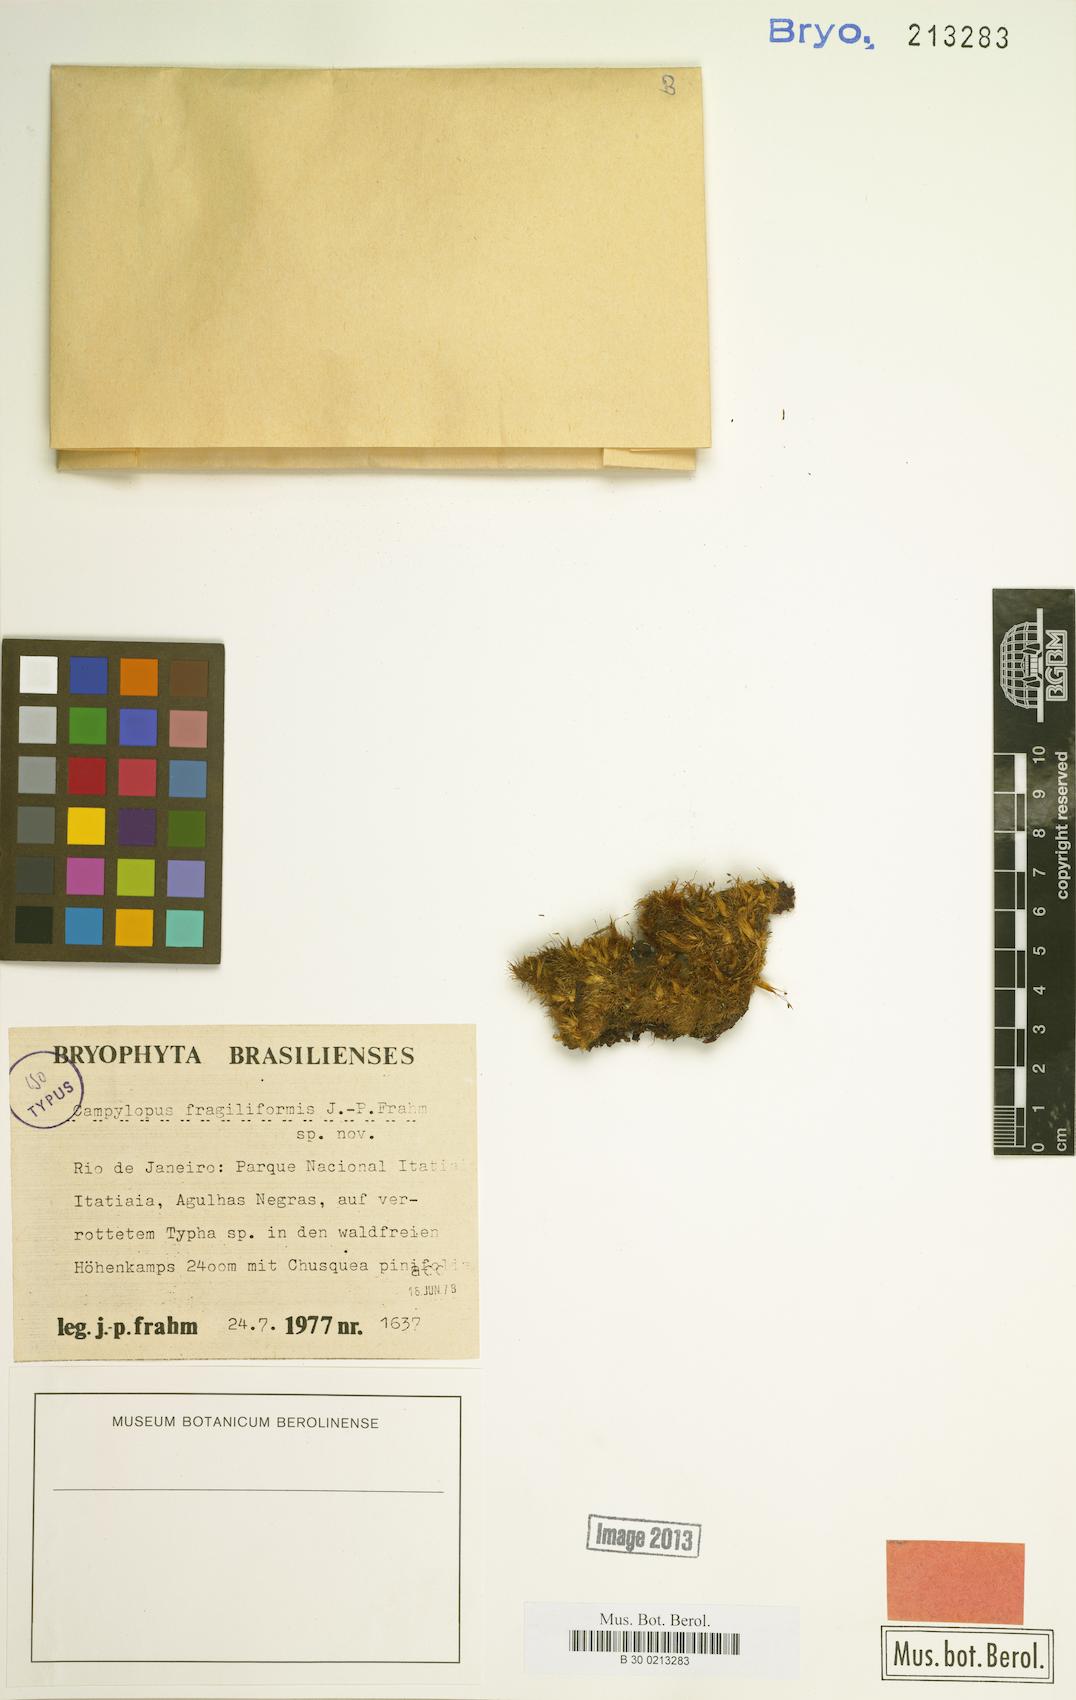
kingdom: Plantae
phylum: Bryophyta
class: Bryopsida
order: Dicranales
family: Leucobryaceae
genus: Campylopus
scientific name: Campylopus fragilis
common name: Brittle swan-neck moss
